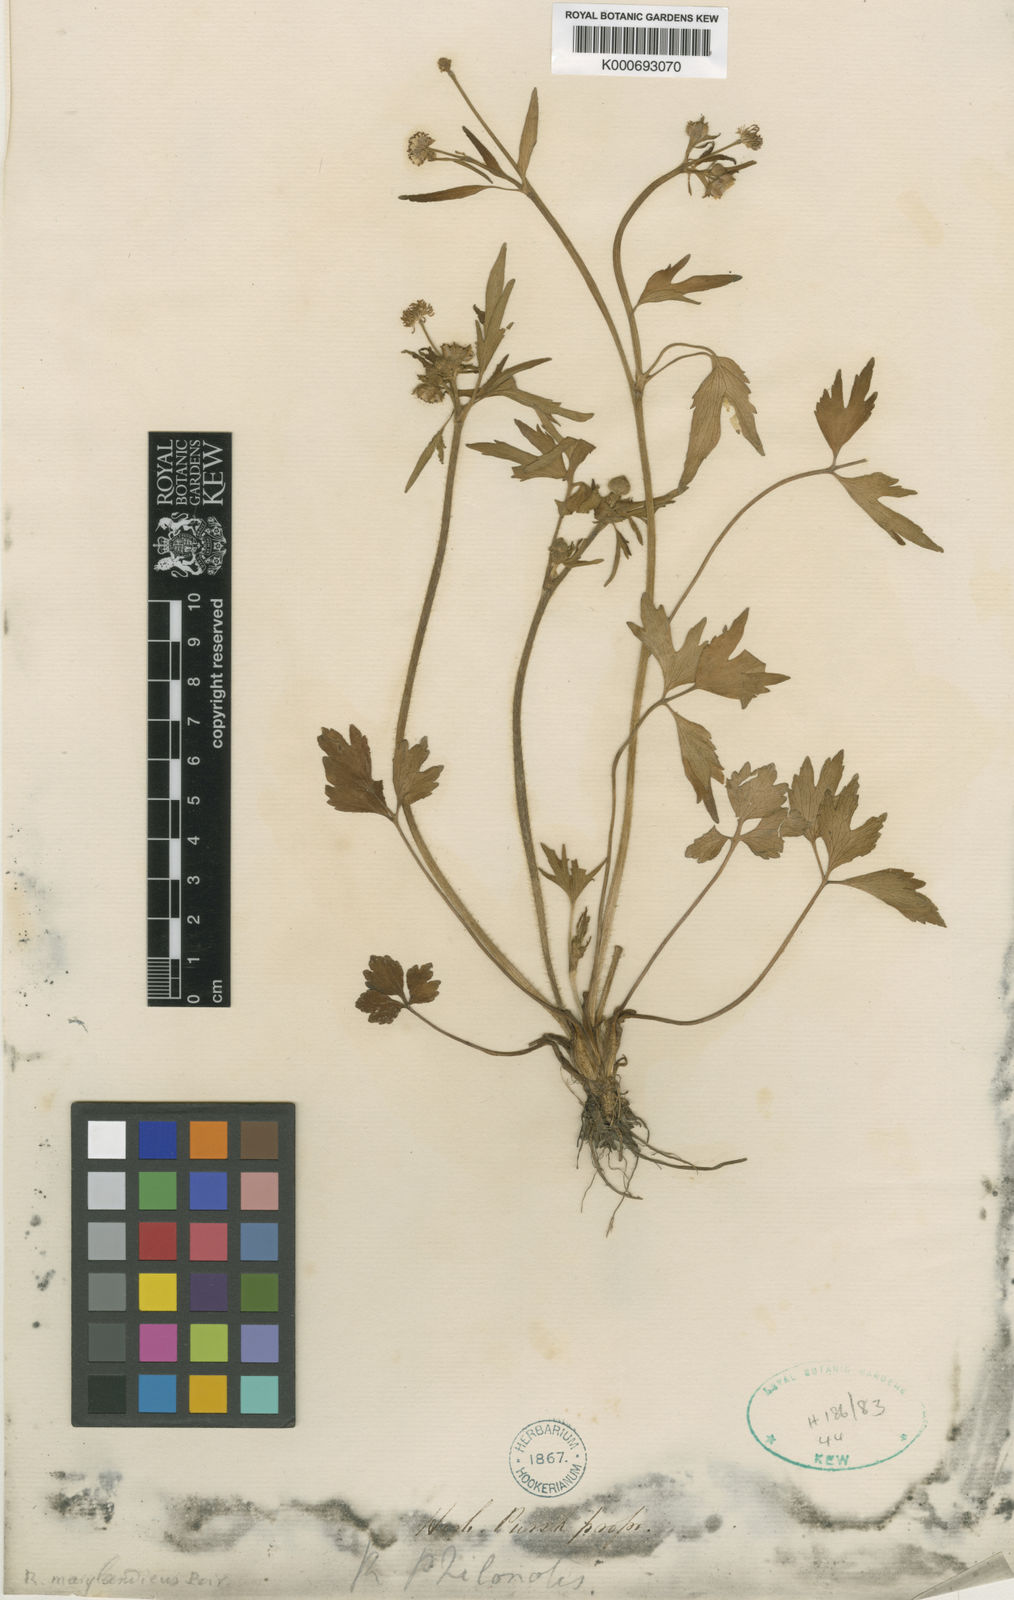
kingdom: Plantae
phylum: Tracheophyta
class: Magnoliopsida
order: Ranunculales
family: Ranunculaceae
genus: Ranunculus
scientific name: Ranunculus hispidus
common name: Bristly buttercup
